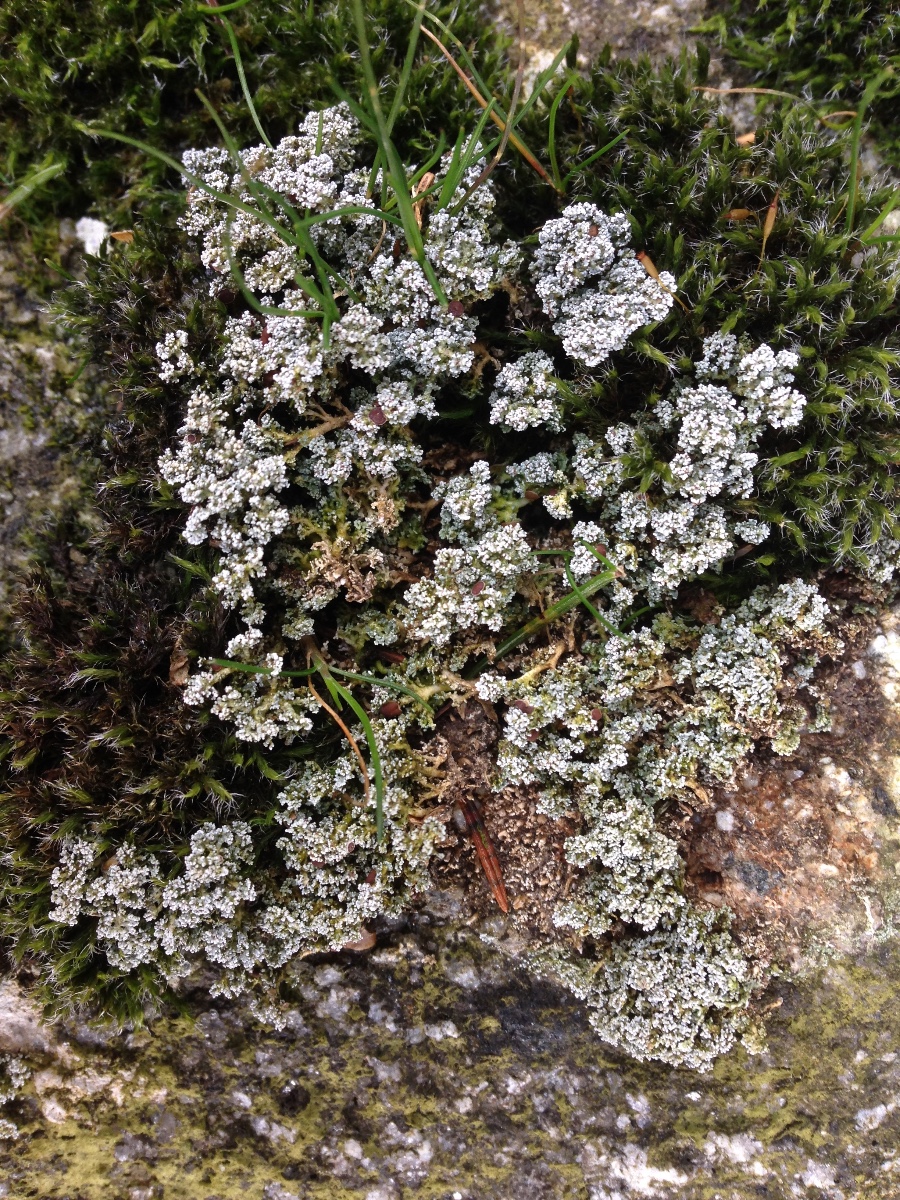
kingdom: Fungi
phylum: Ascomycota
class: Lecanoromycetes
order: Lecanorales
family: Stereocaulaceae
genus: Stereocaulon
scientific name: Stereocaulon dactylophyllum
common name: finger-korallav
